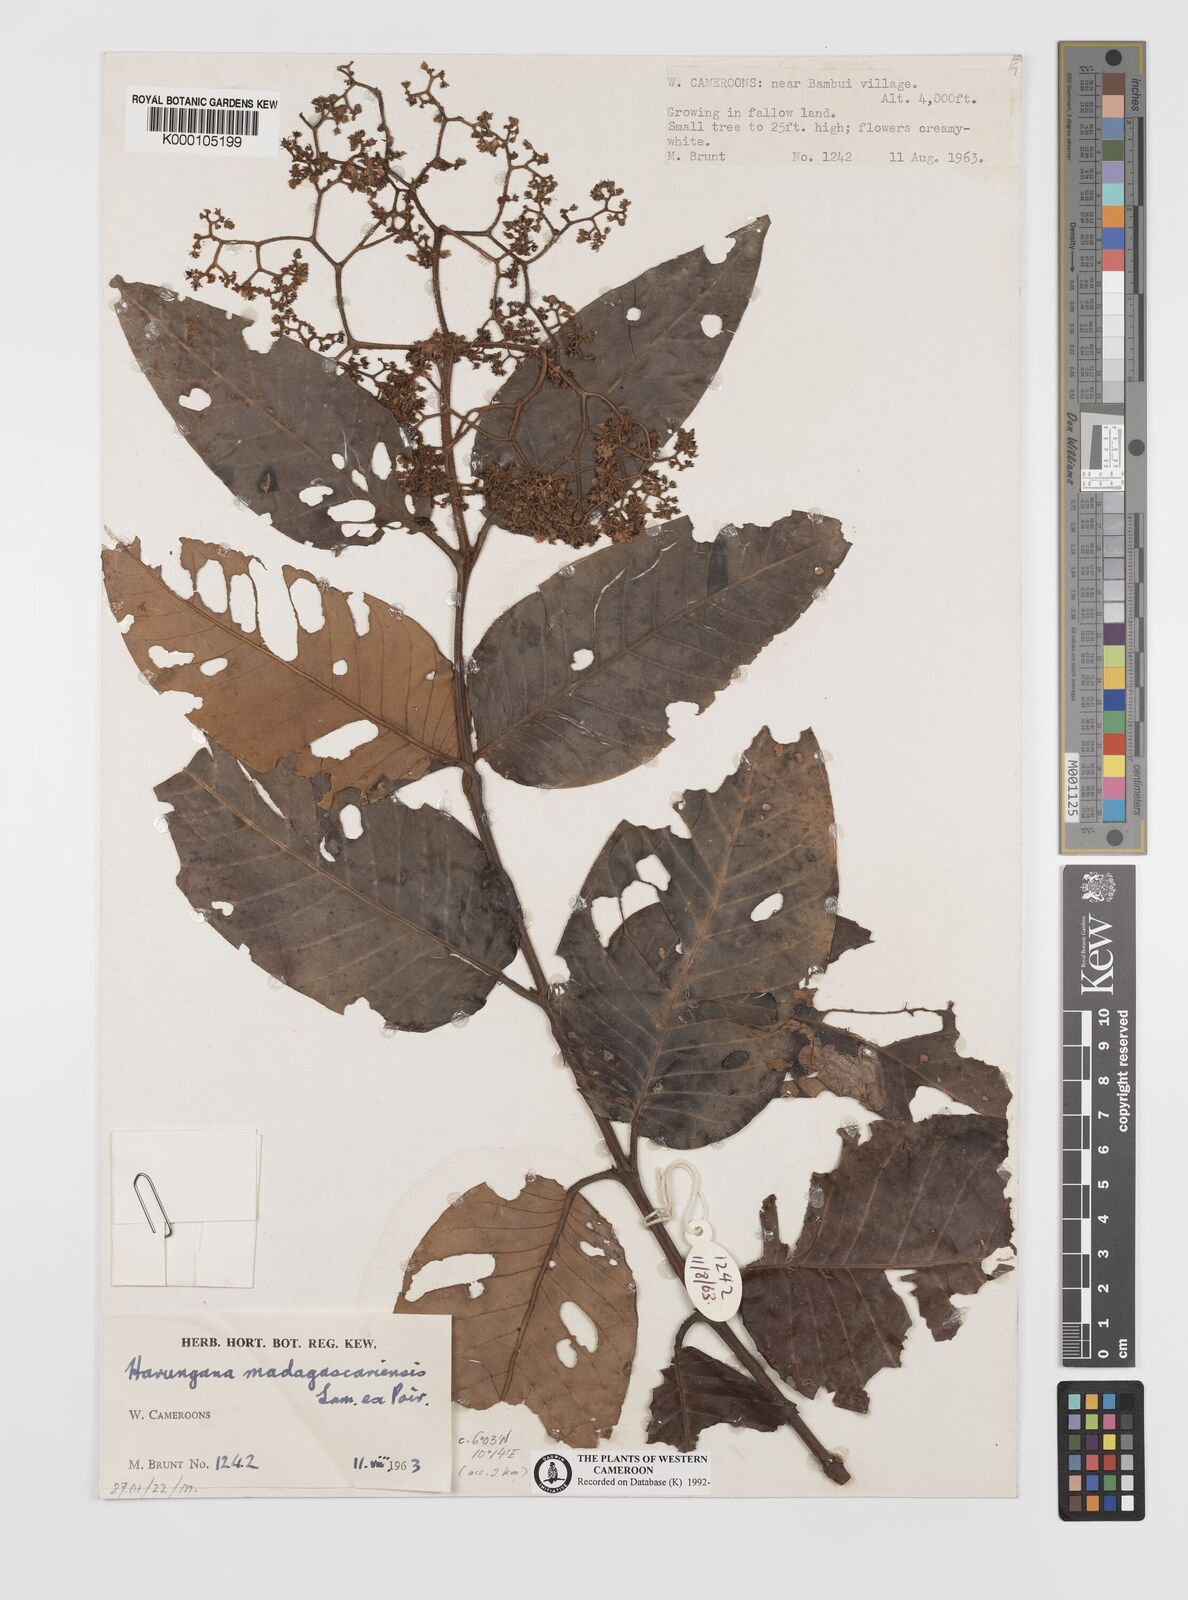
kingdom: Plantae
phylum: Tracheophyta
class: Magnoliopsida
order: Malpighiales
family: Hypericaceae
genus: Harungana
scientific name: Harungana madagascariensis
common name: Orange milktree
